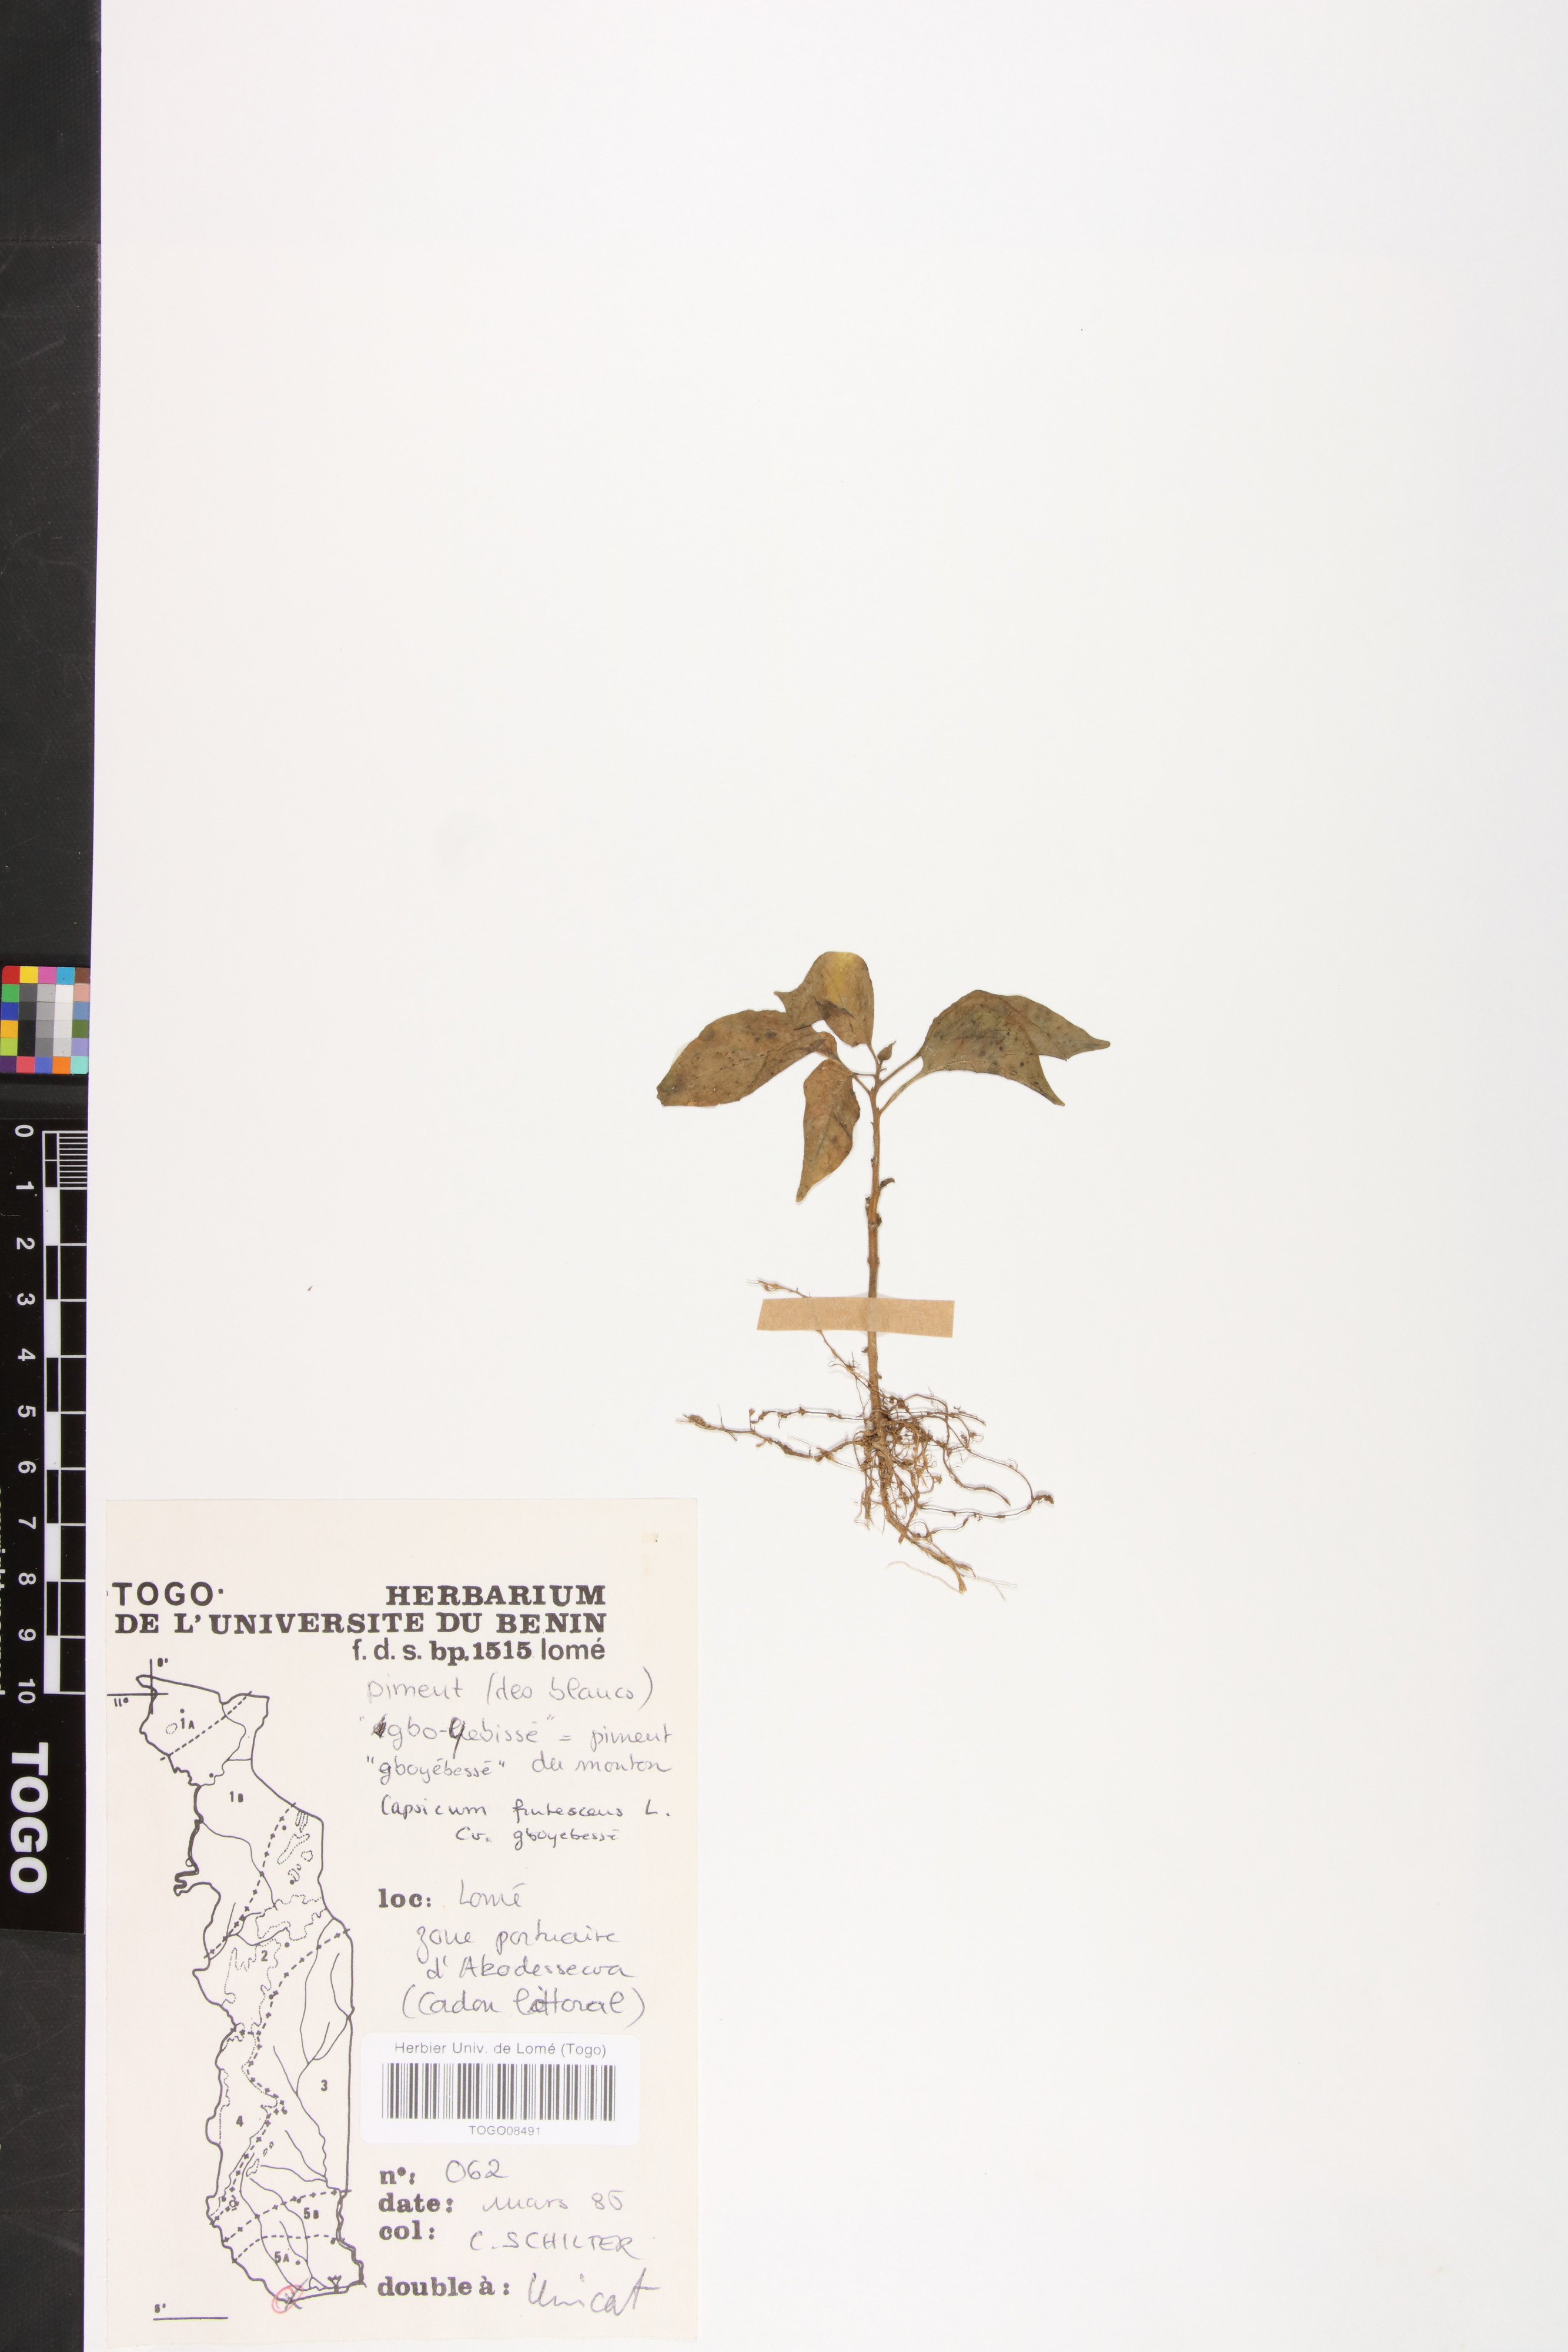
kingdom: Plantae
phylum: Tracheophyta
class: Magnoliopsida
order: Solanales
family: Solanaceae
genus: Capsicum
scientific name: Capsicum frutescens
